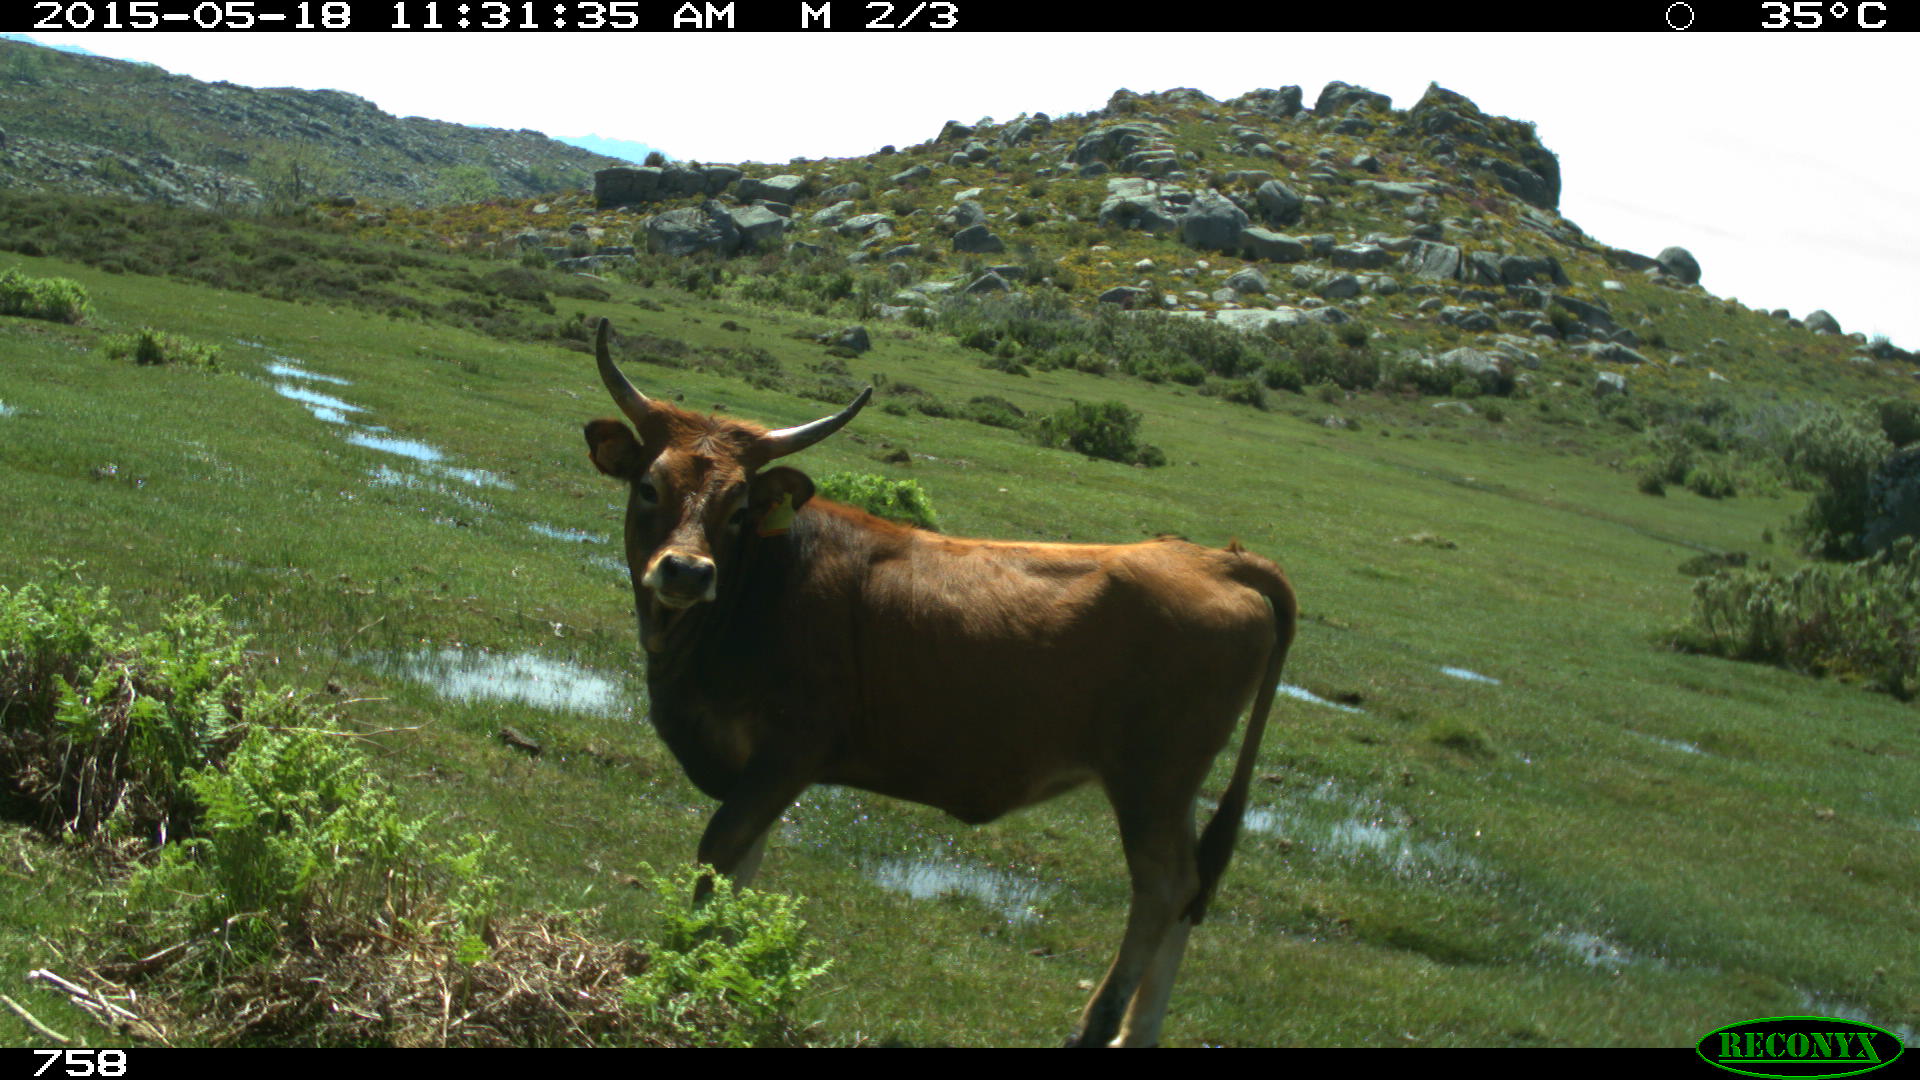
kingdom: Animalia
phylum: Chordata
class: Mammalia
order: Artiodactyla
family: Bovidae
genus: Bos
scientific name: Bos taurus
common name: Domesticated cattle
